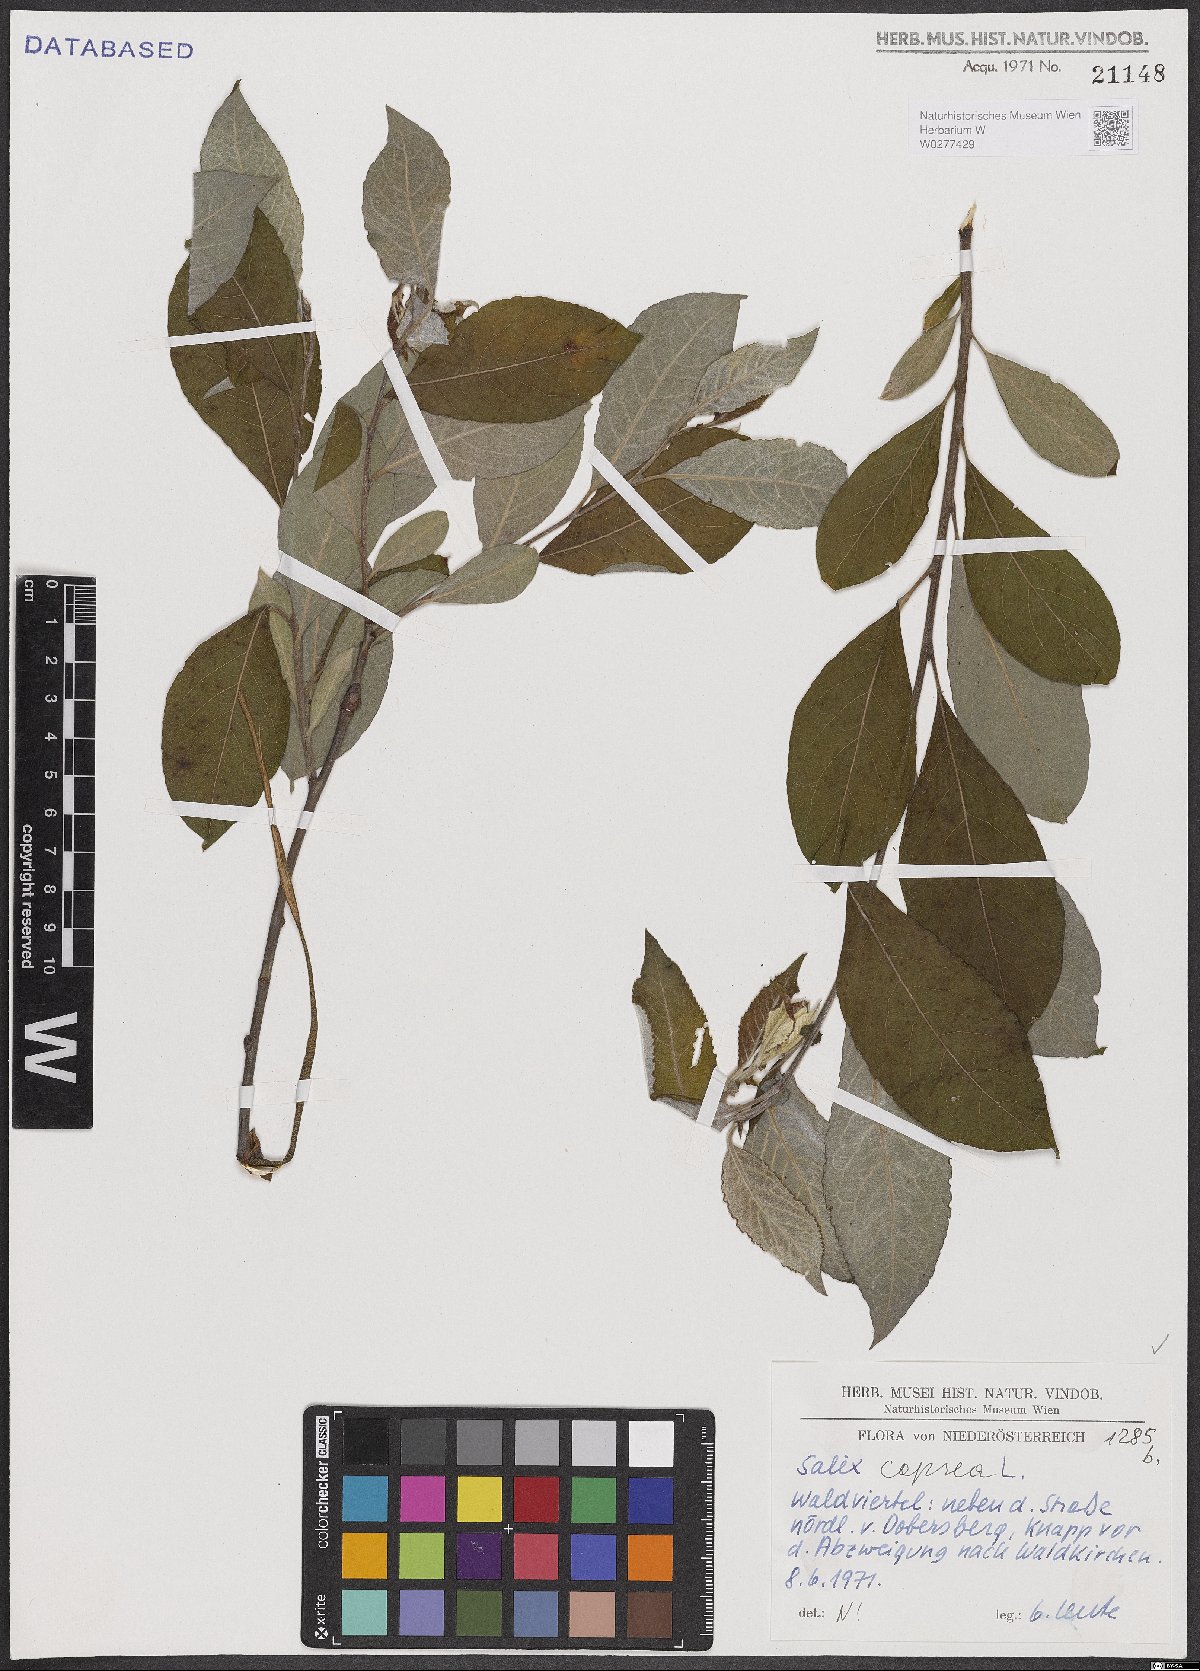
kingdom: Plantae
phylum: Tracheophyta
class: Magnoliopsida
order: Malpighiales
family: Salicaceae
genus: Salix
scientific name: Salix caprea
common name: Goat willow
